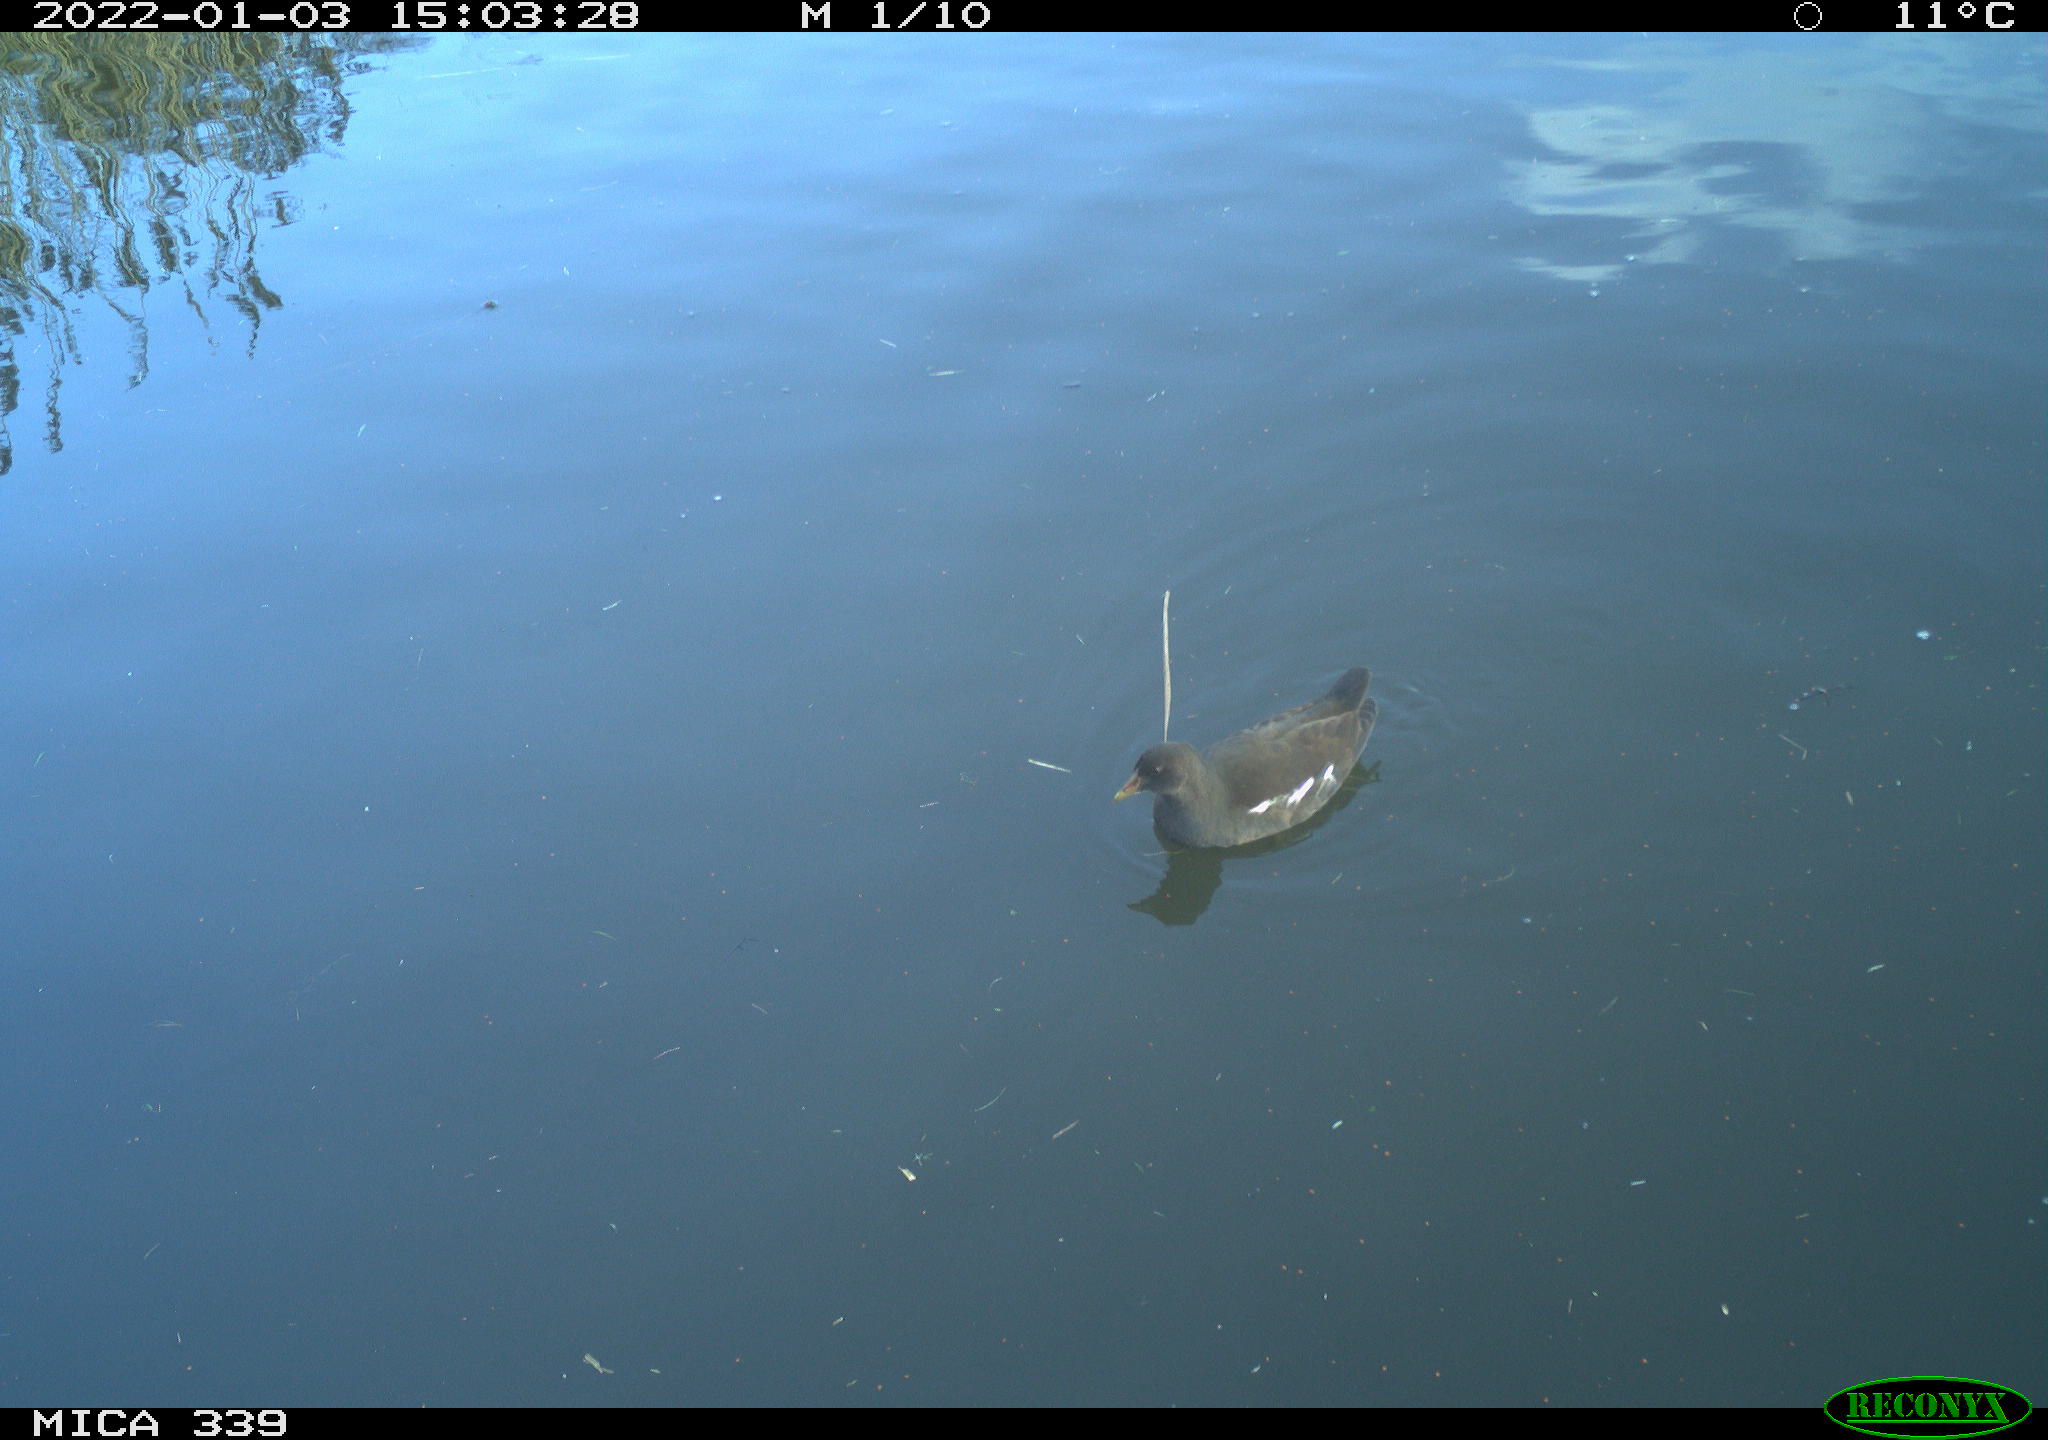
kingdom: Animalia
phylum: Chordata
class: Aves
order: Gruiformes
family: Rallidae
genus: Gallinula
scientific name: Gallinula chloropus
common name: Common moorhen
